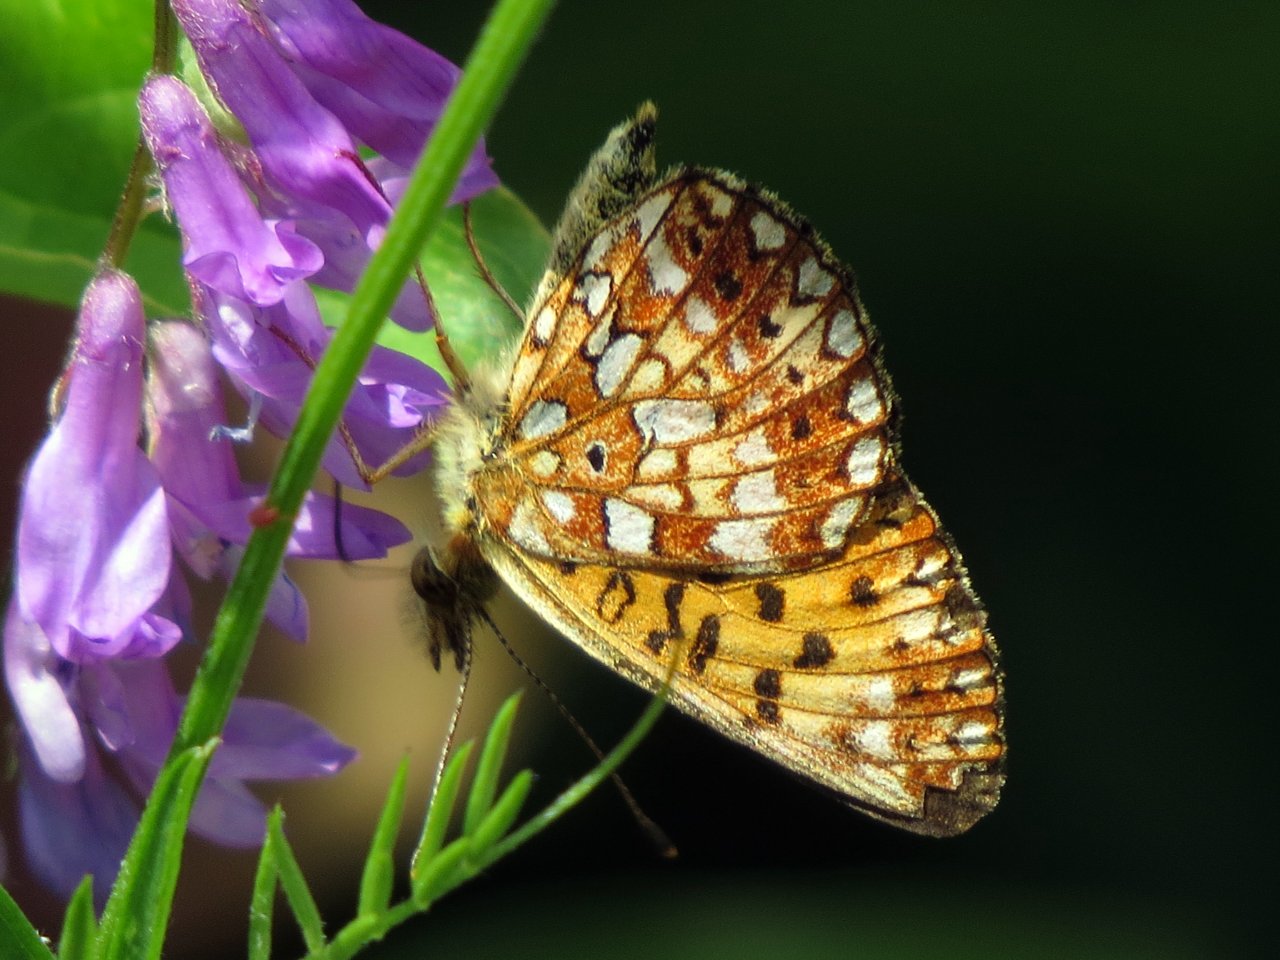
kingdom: Animalia
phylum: Arthropoda
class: Insecta
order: Lepidoptera
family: Nymphalidae
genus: Boloria
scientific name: Boloria selene
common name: Silver-bordered Fritillary
